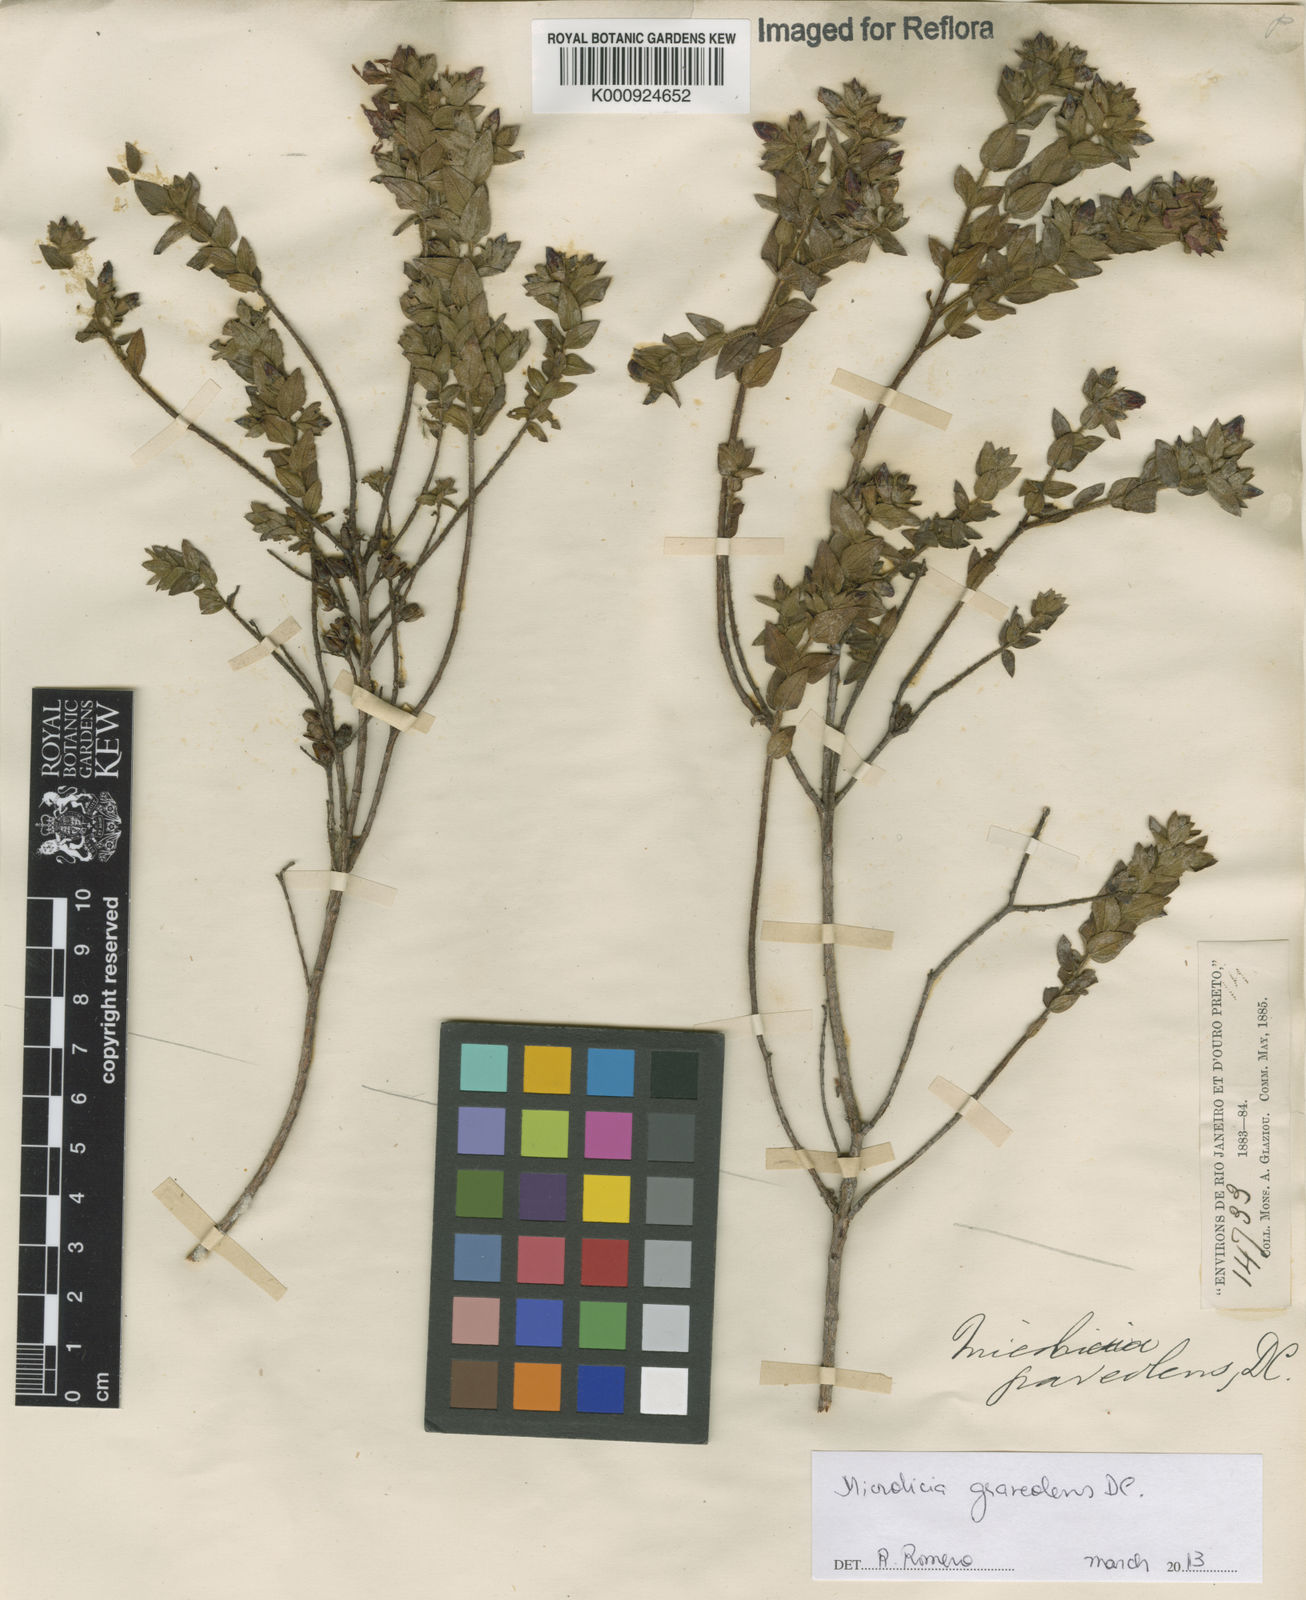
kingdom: Plantae
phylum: Tracheophyta
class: Magnoliopsida
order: Myrtales
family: Melastomataceae
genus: Microlicia
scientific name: Microlicia graveolens
